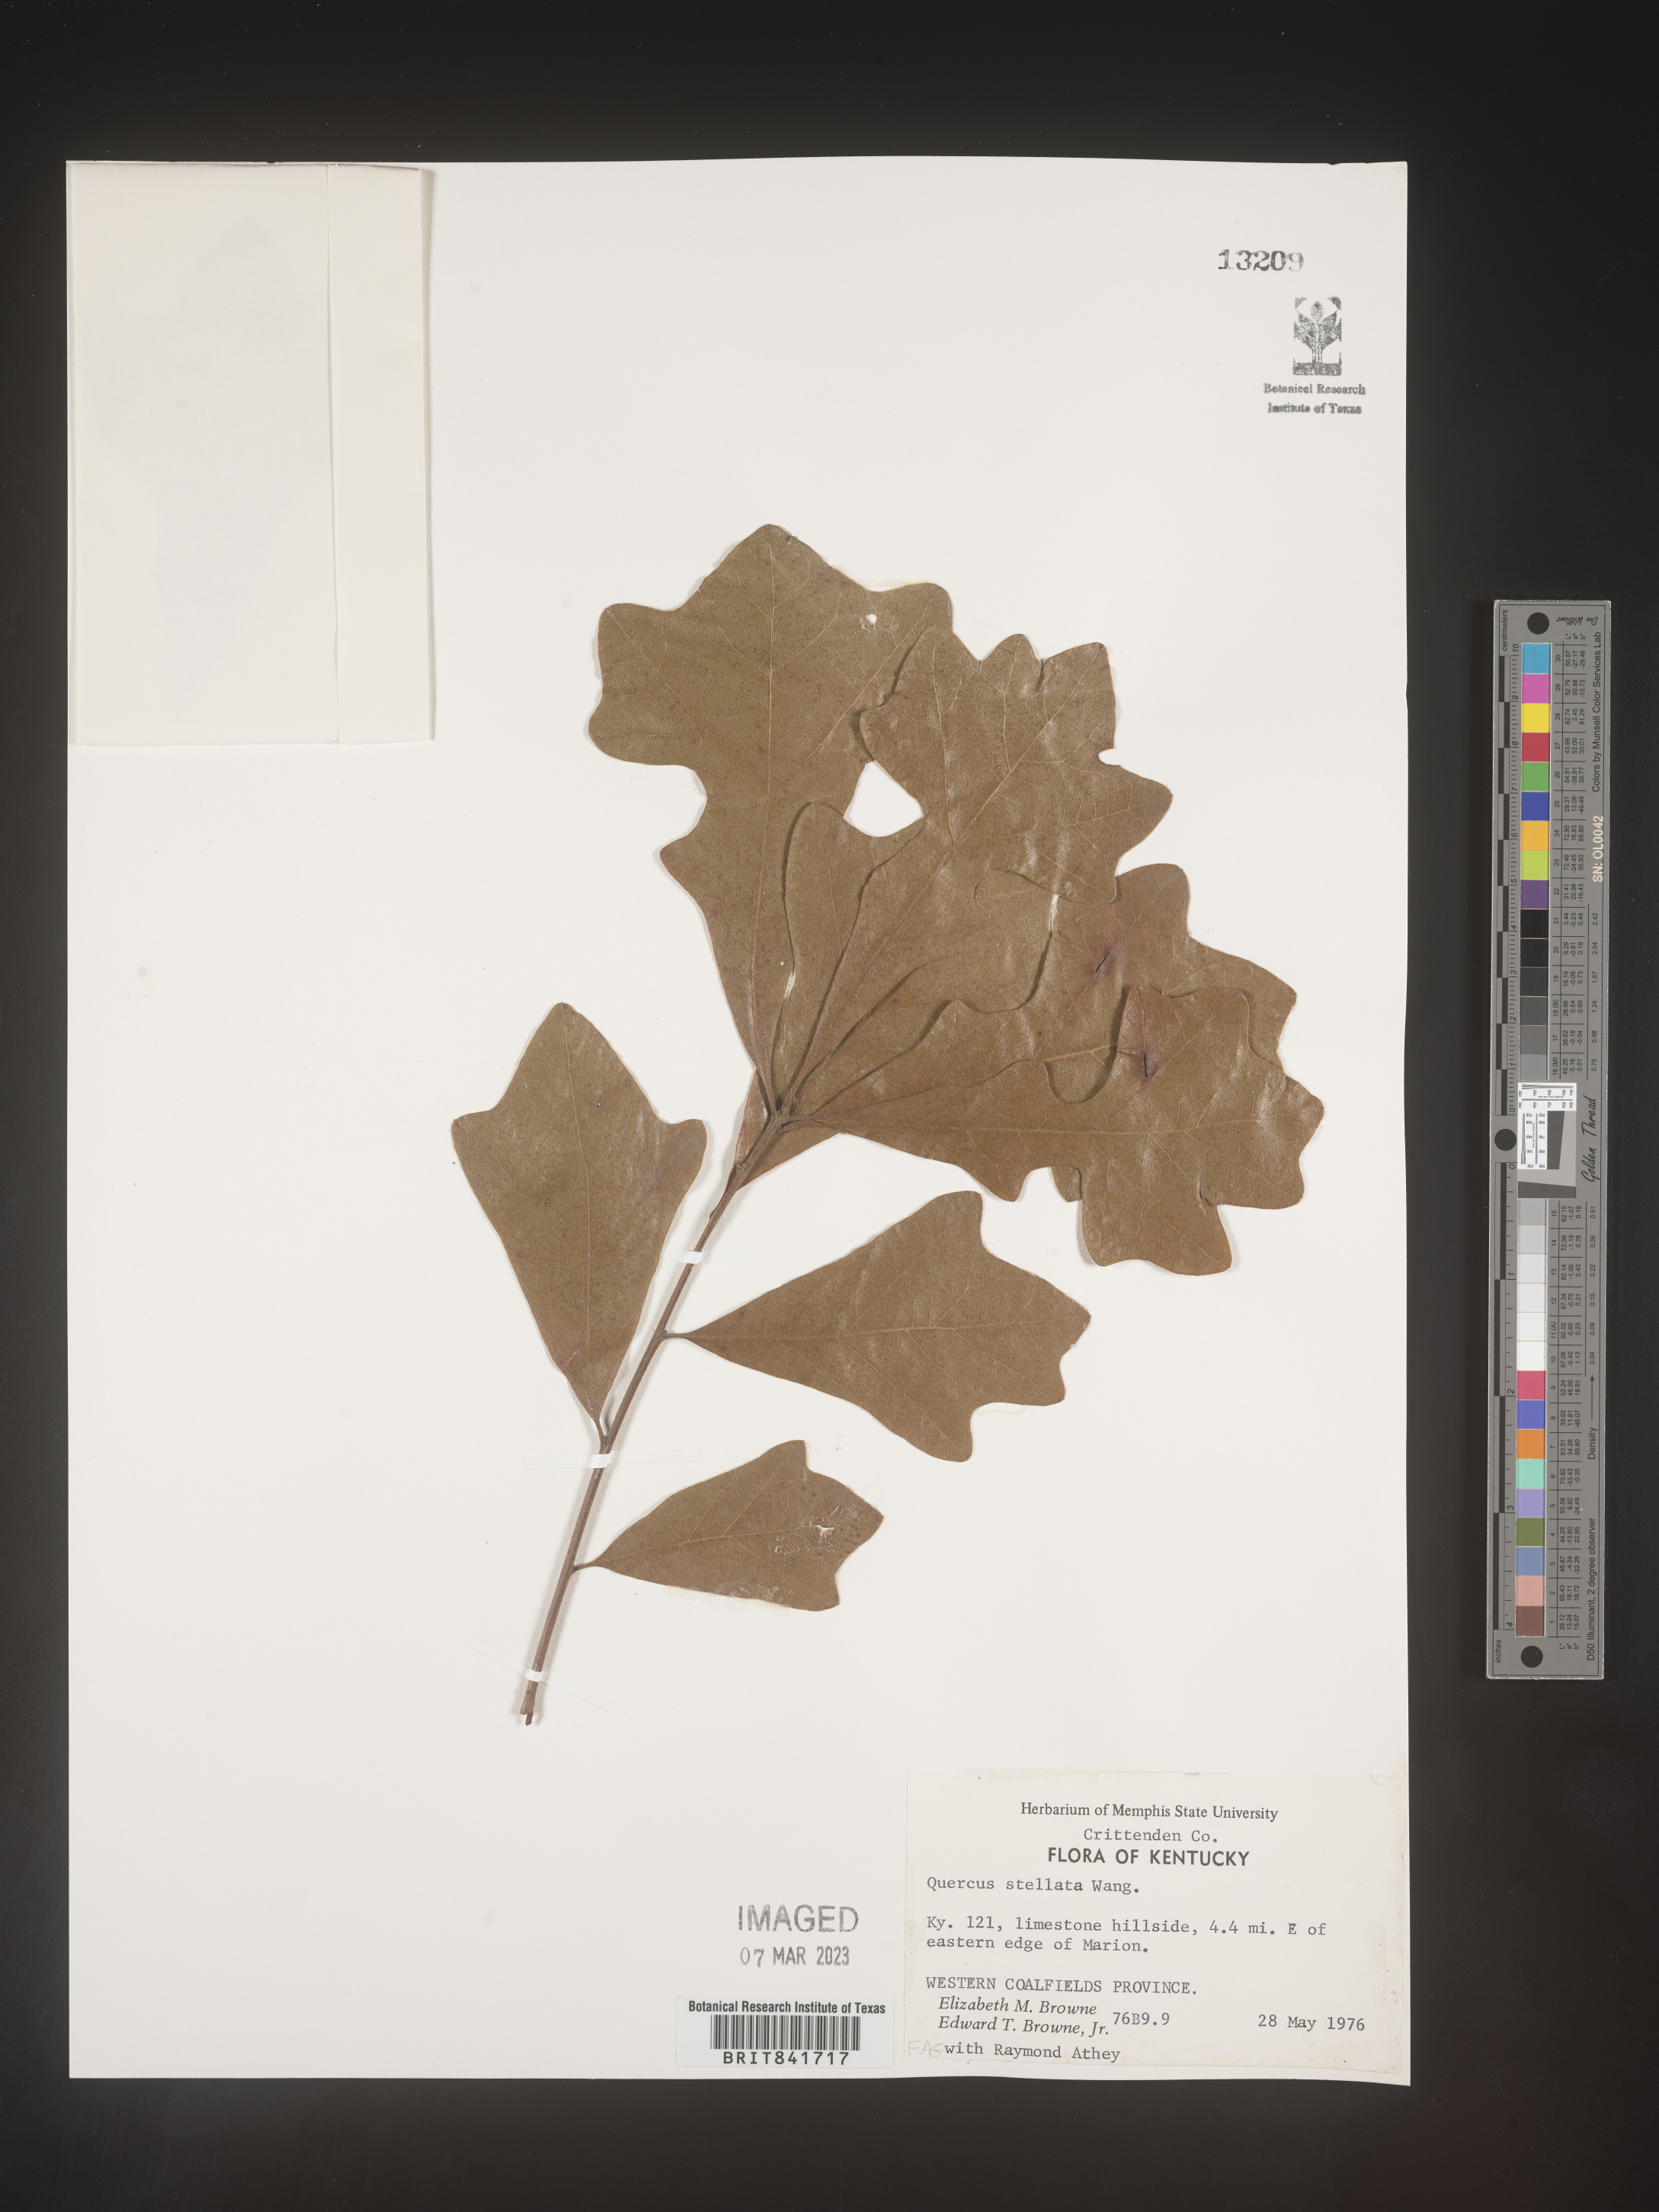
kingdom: Plantae
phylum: Tracheophyta
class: Magnoliopsida
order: Fagales
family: Fagaceae
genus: Quercus
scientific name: Quercus stellata
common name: Post oak
